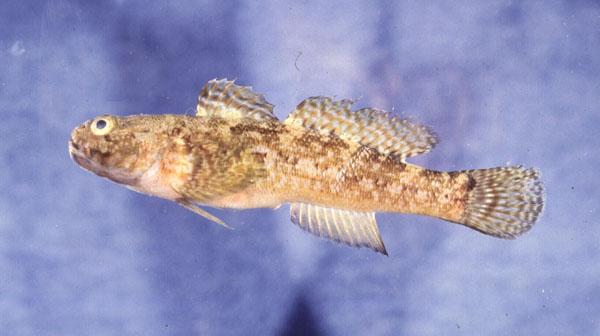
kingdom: Animalia
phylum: Chordata
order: Perciformes
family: Gobiidae
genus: Gobius
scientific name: Gobius paganellus
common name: Rock goby
